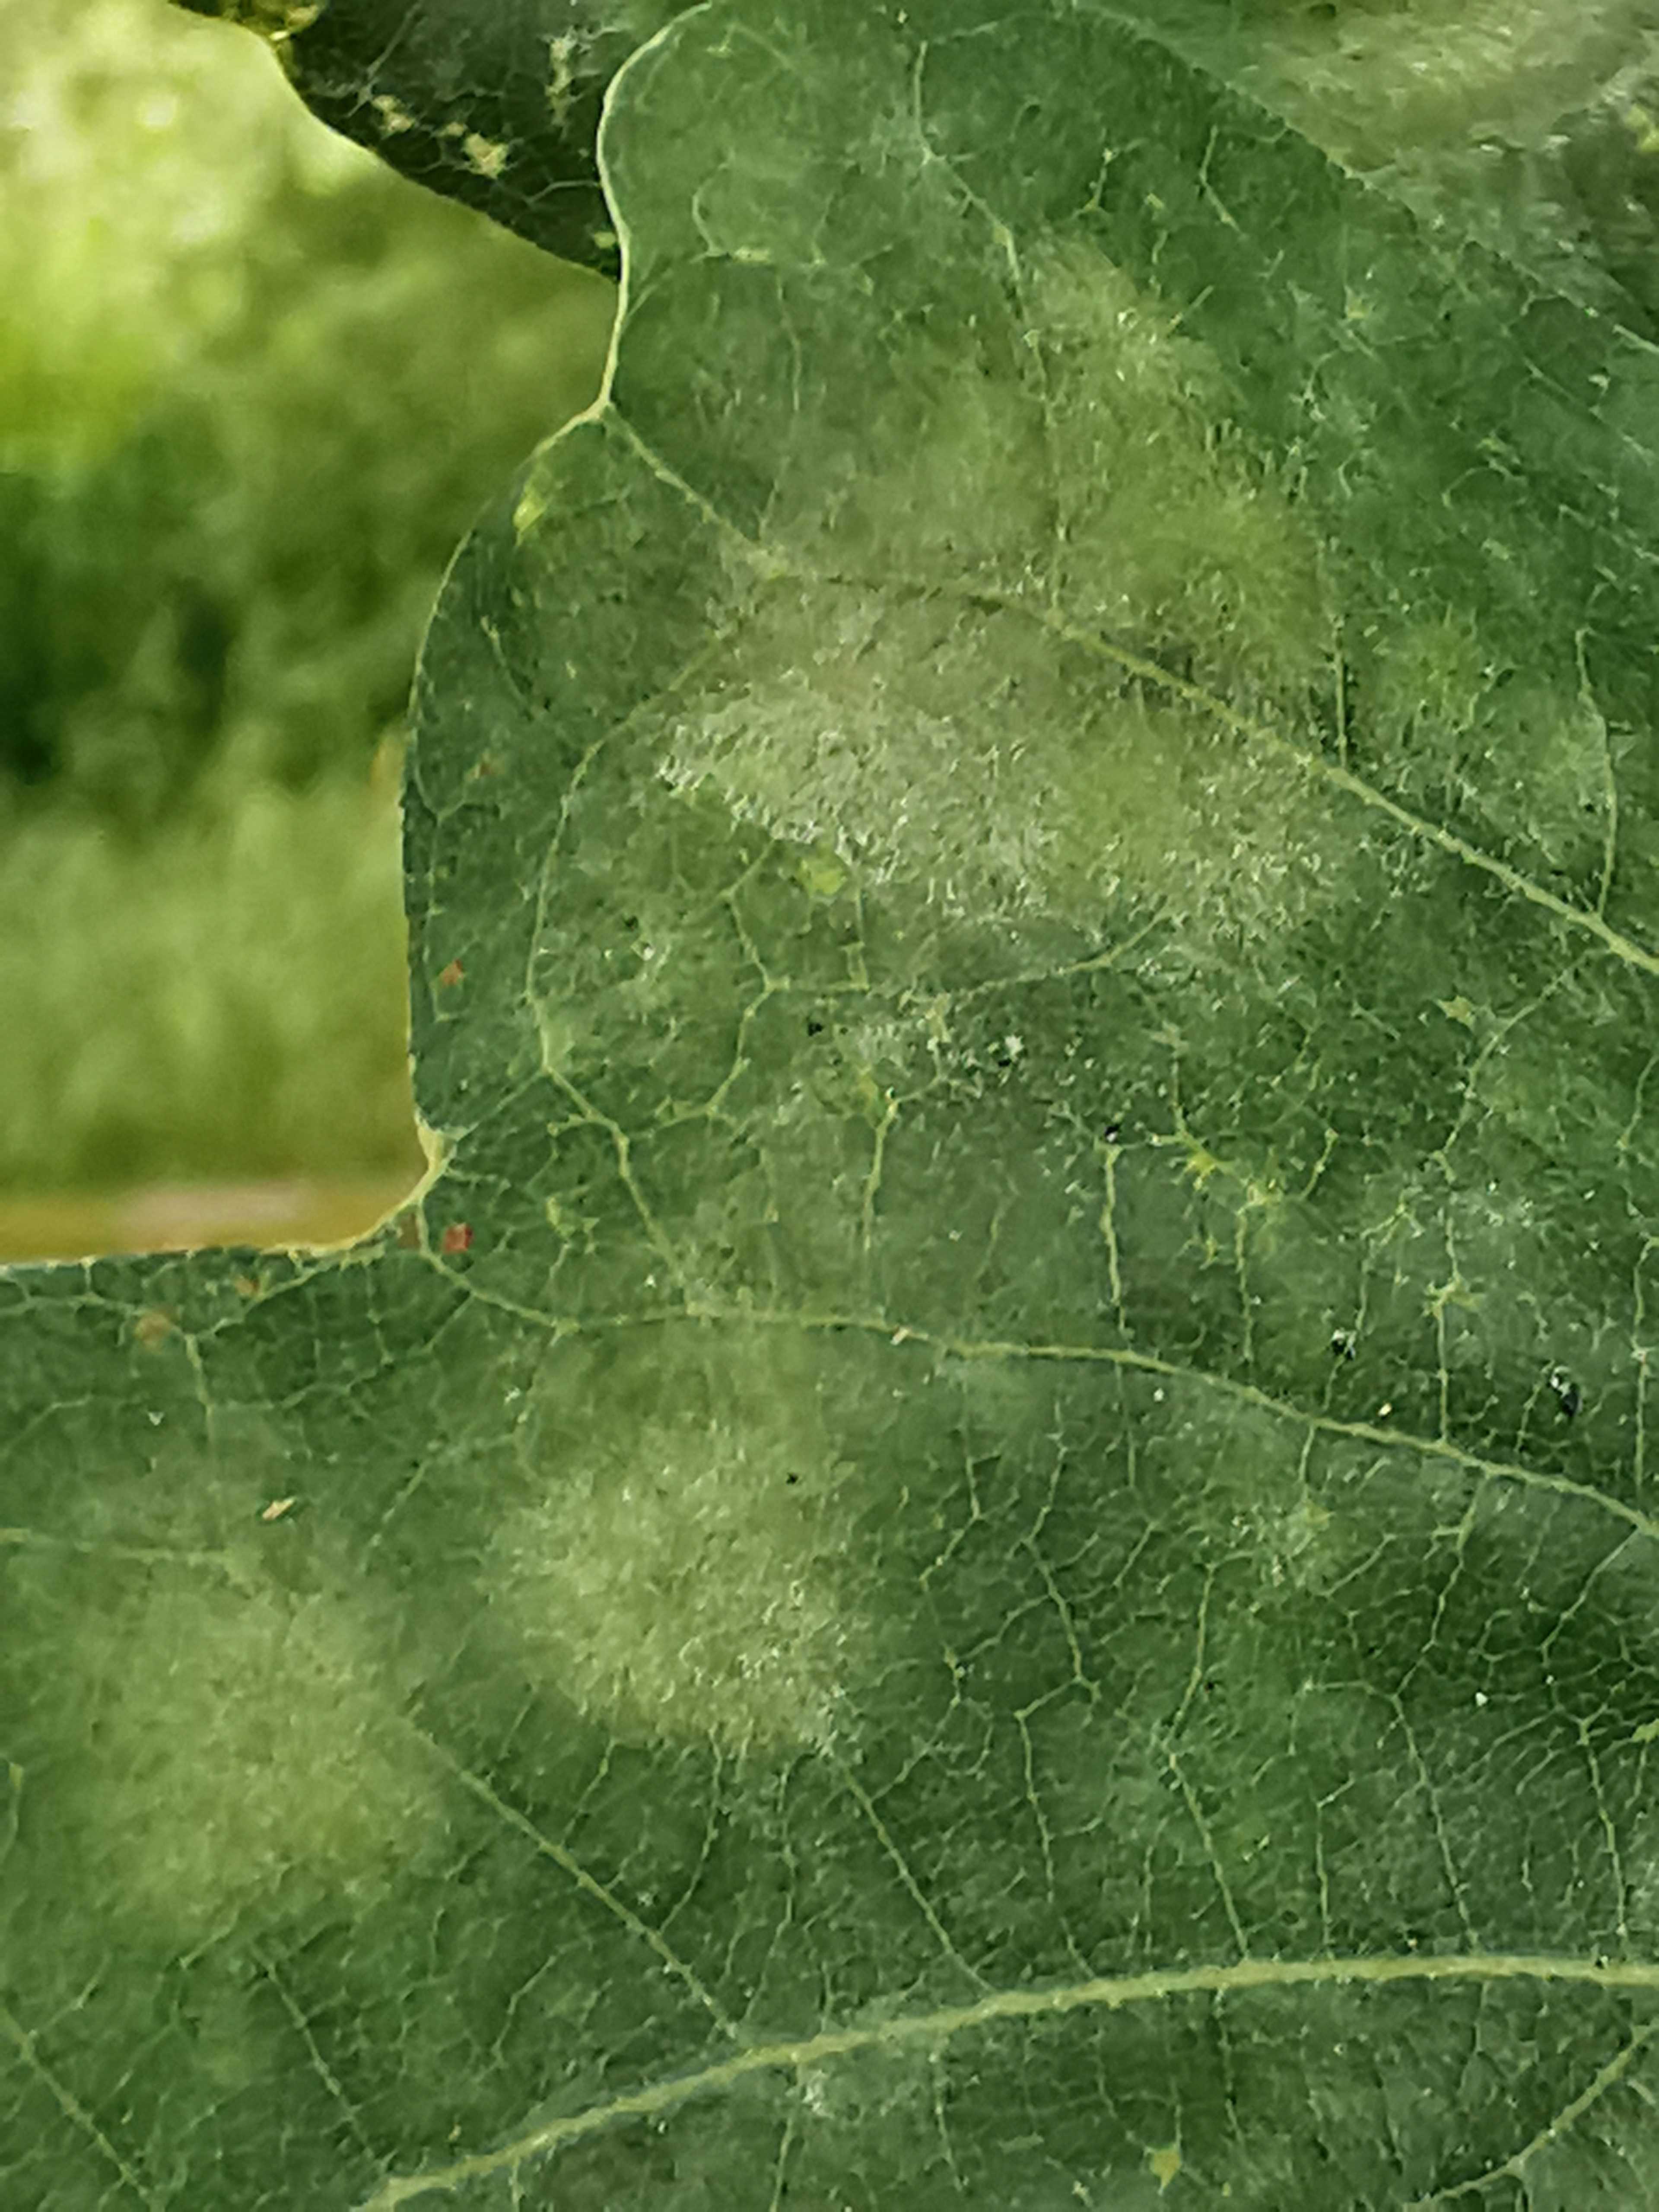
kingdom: Fungi
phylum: Ascomycota
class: Leotiomycetes
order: Helotiales
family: Erysiphaceae
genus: Erysiphe
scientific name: Erysiphe alphitoides
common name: ege-meldug
